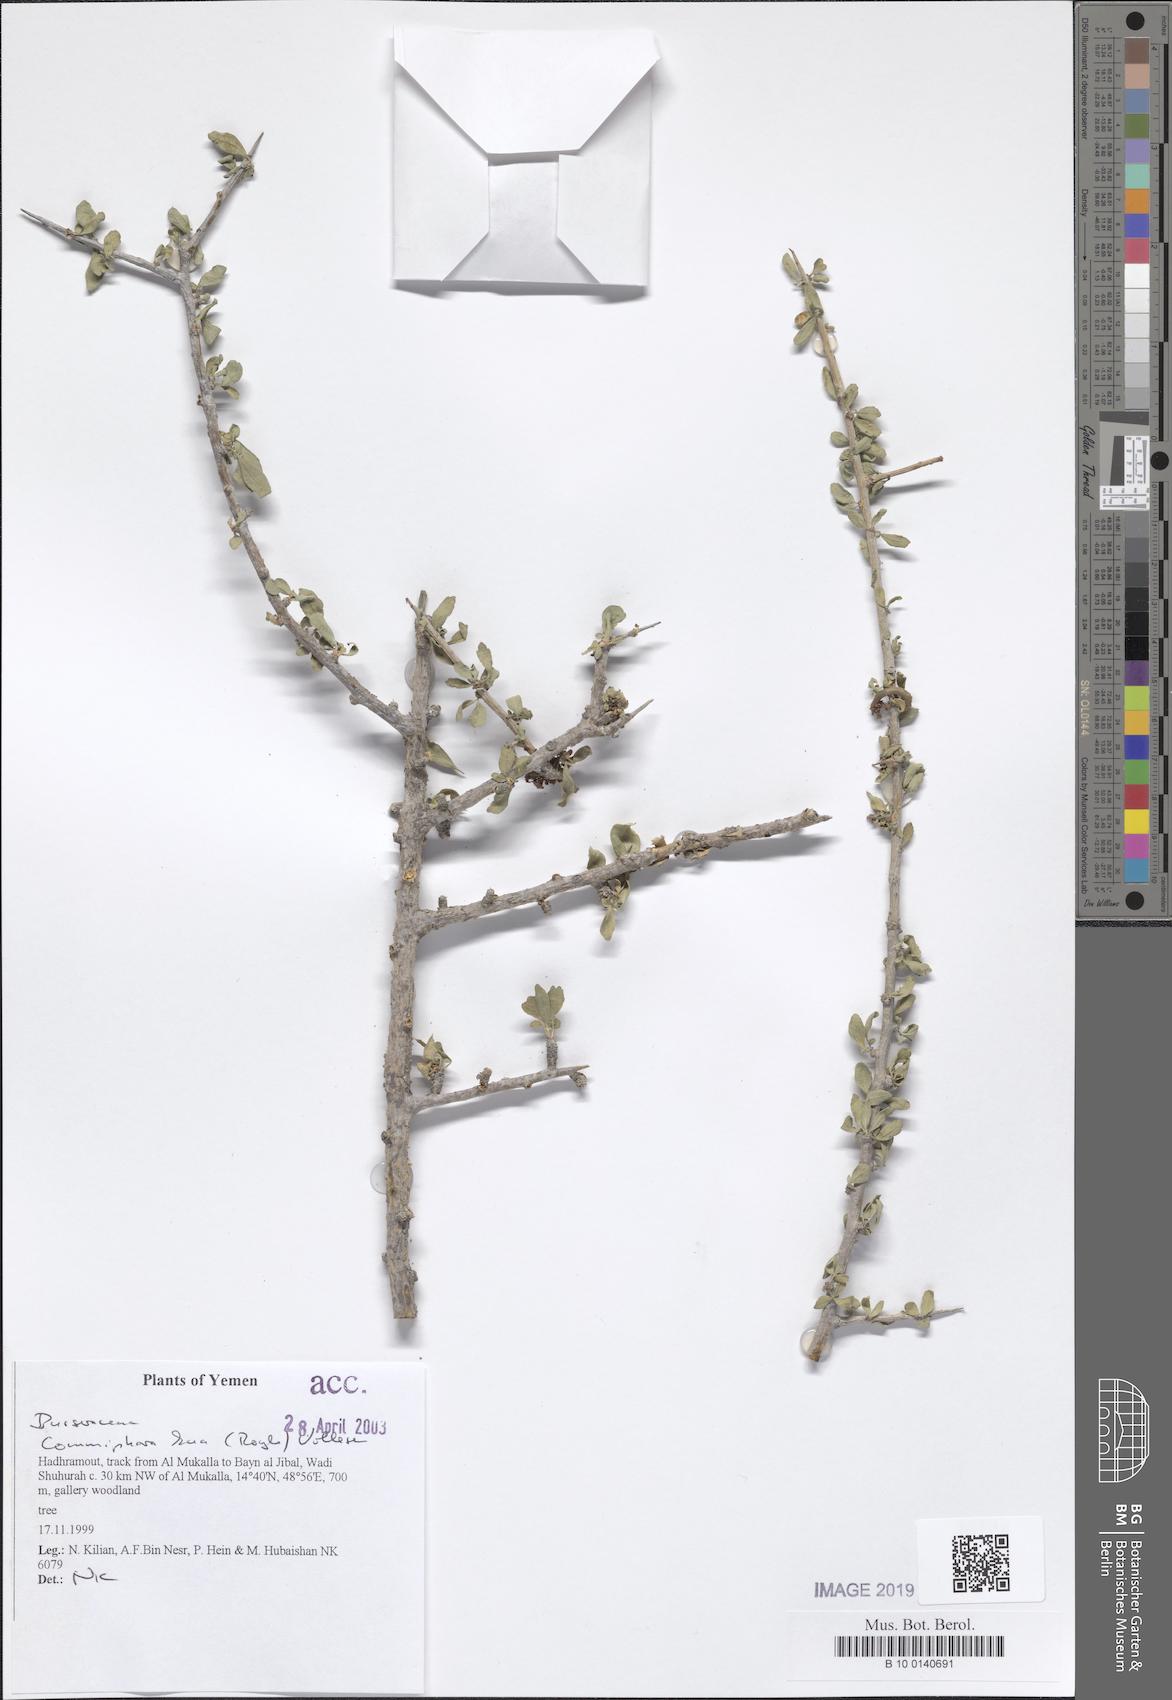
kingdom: Plantae
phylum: Tracheophyta
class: Magnoliopsida
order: Sapindales
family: Burseraceae
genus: Commiphora
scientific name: Commiphora kua
